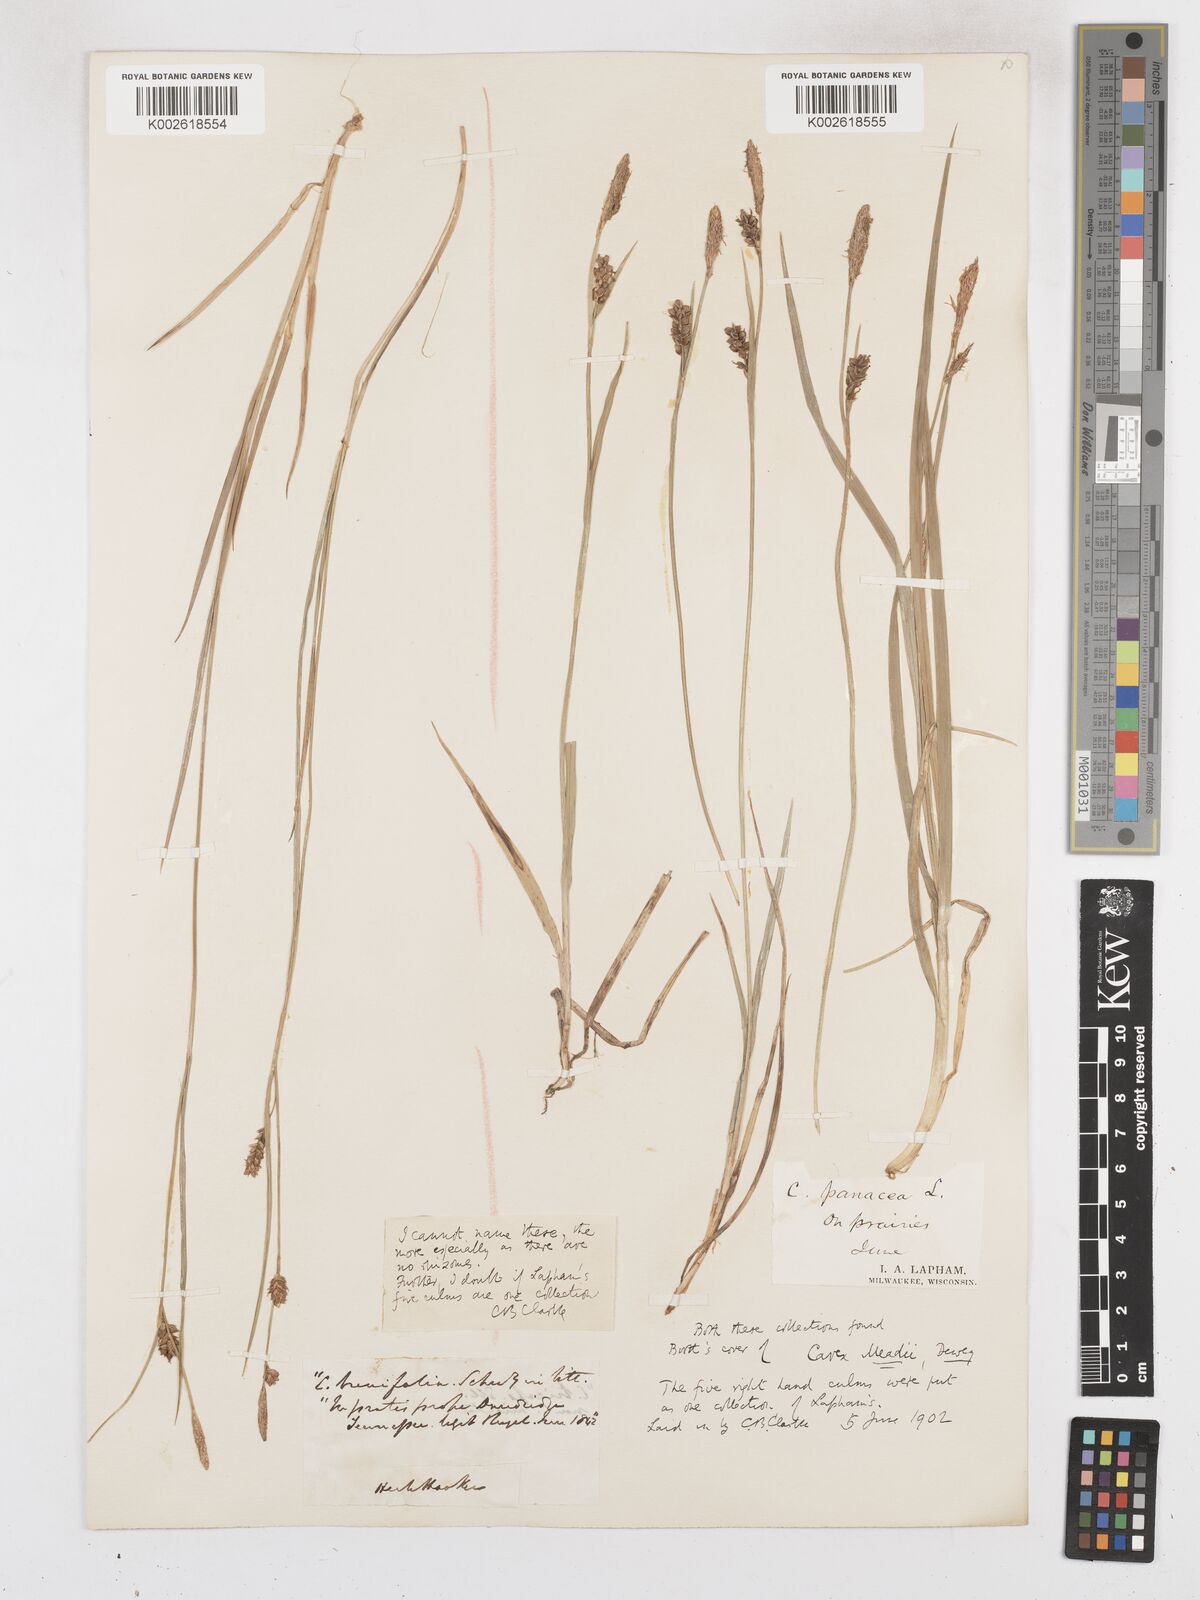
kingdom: Plantae
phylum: Tracheophyta
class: Liliopsida
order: Poales
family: Cyperaceae
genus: Carex
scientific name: Carex meadii
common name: Mead's sedge
